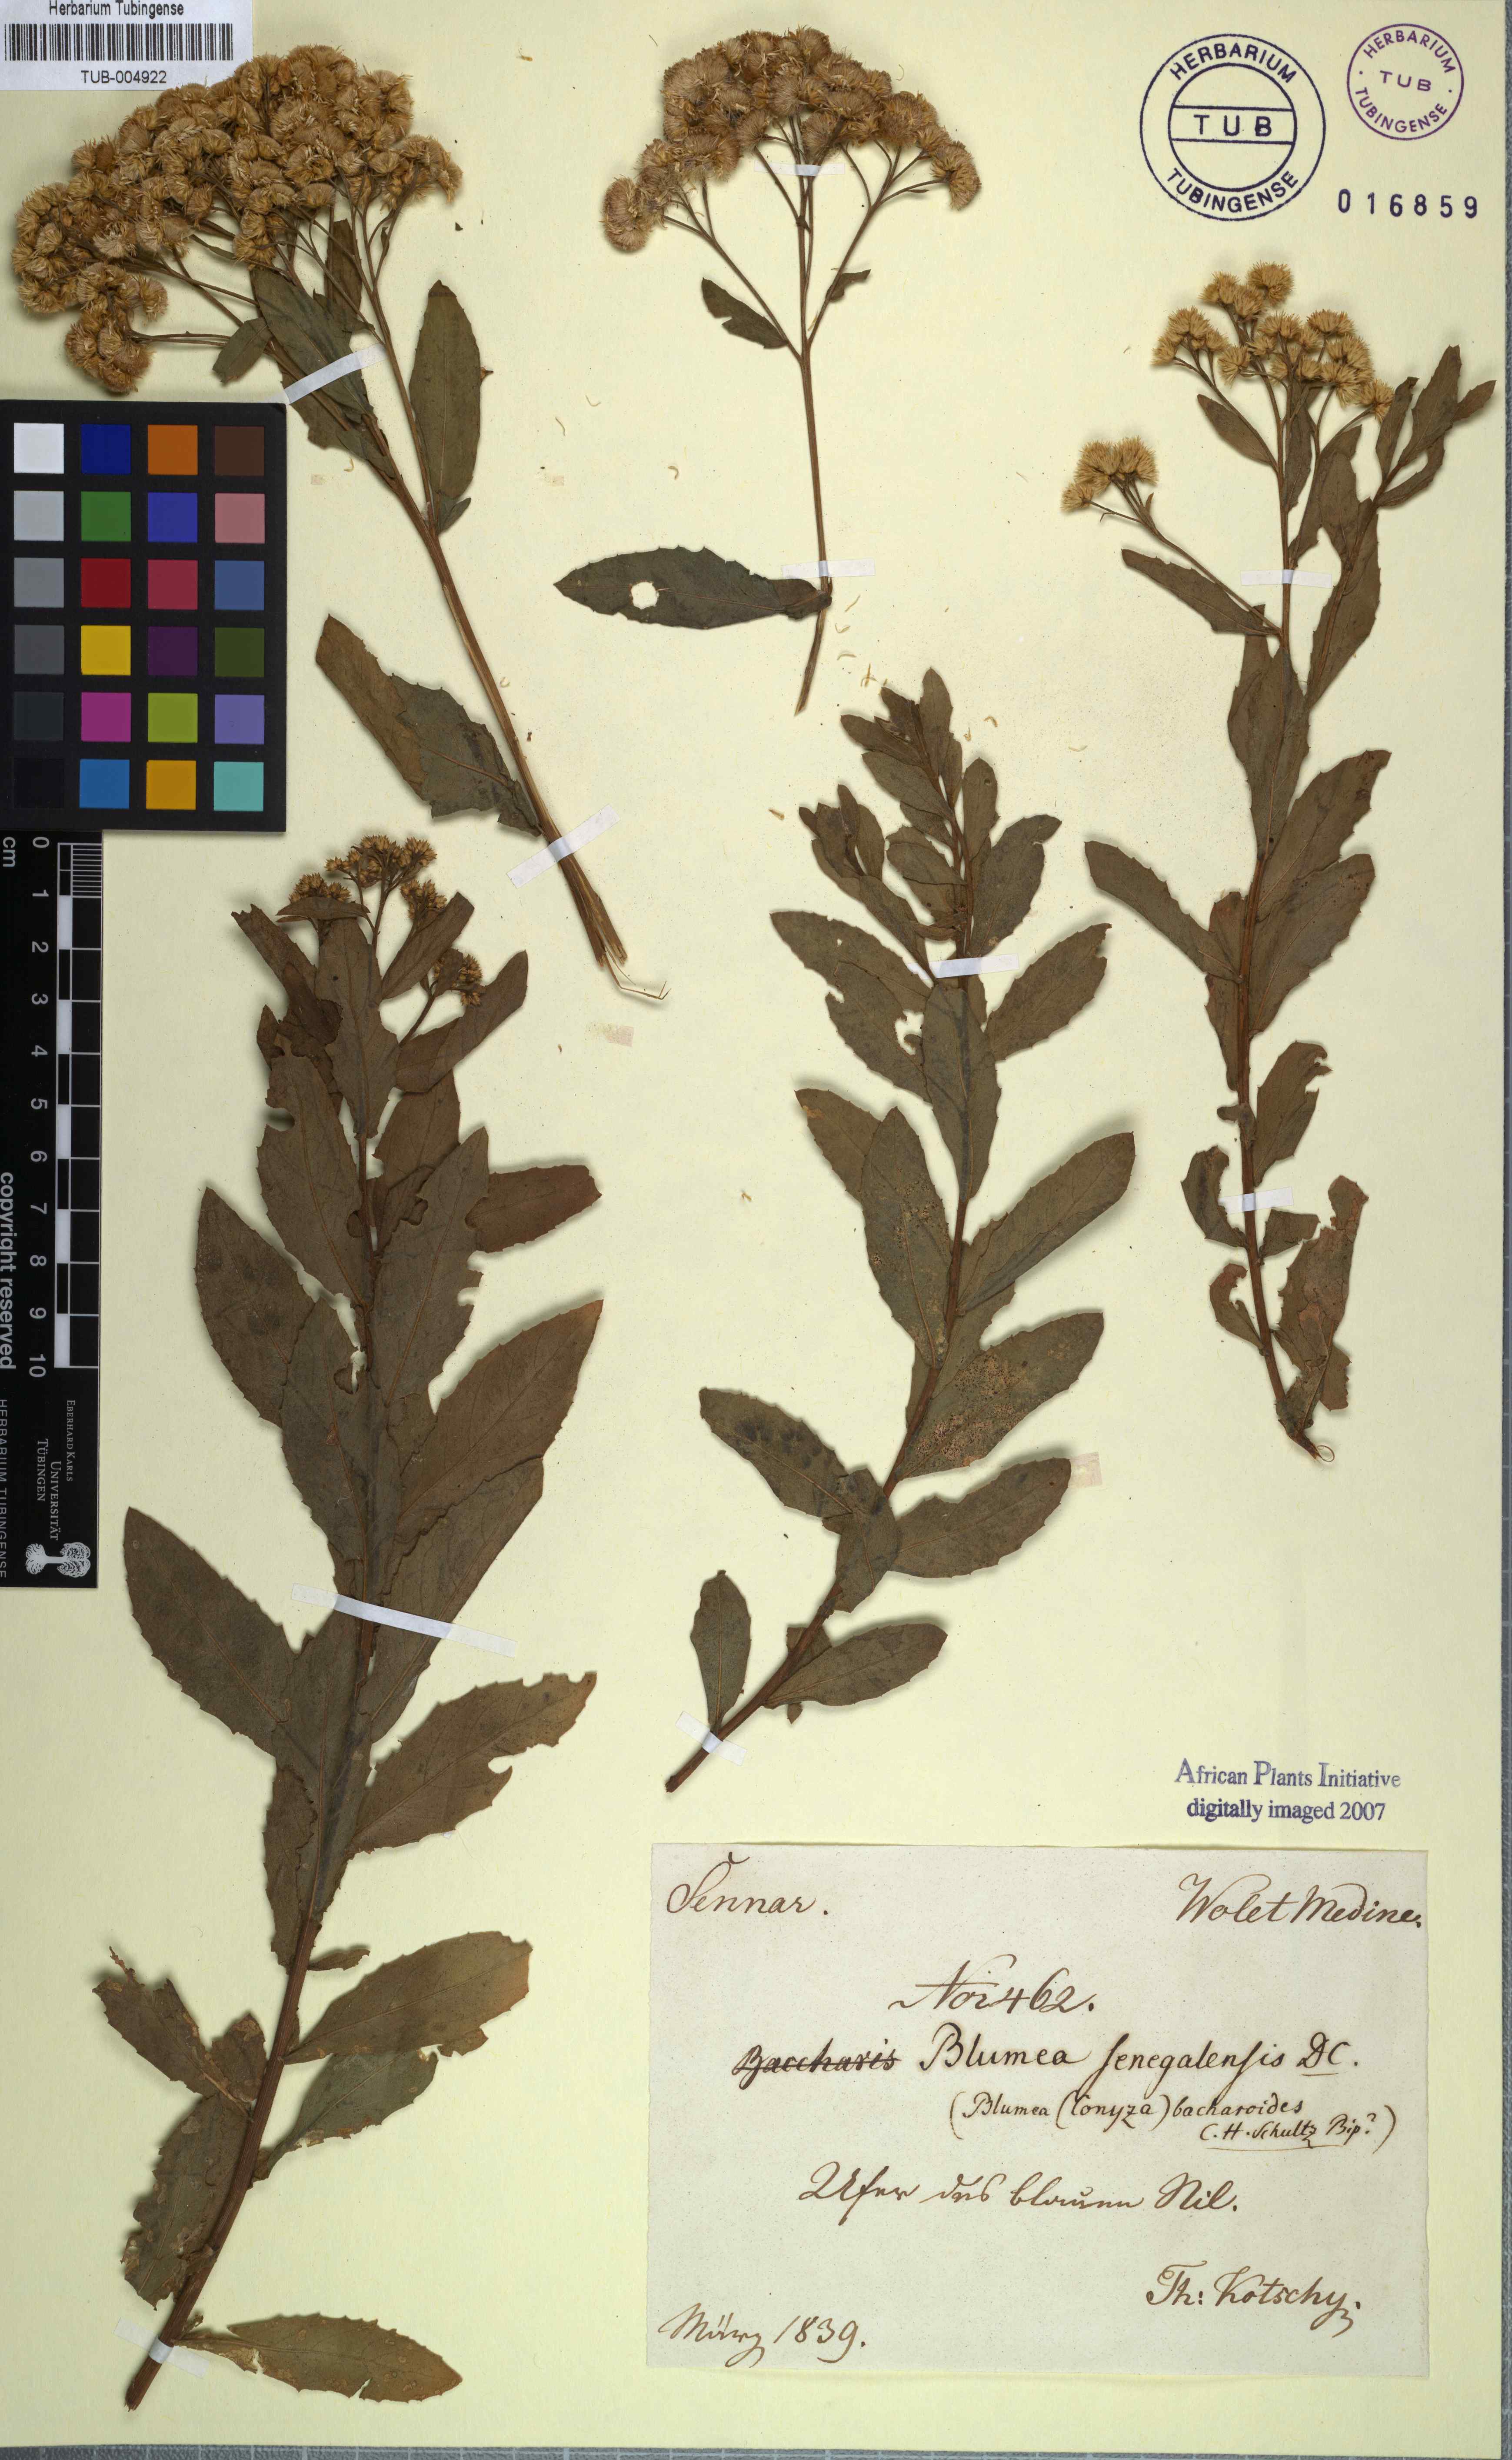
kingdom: Plantae
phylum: Tracheophyta
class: Magnoliopsida
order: Asterales
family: Asteraceae
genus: Pseudoconyza
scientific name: Pseudoconyza viscosa
